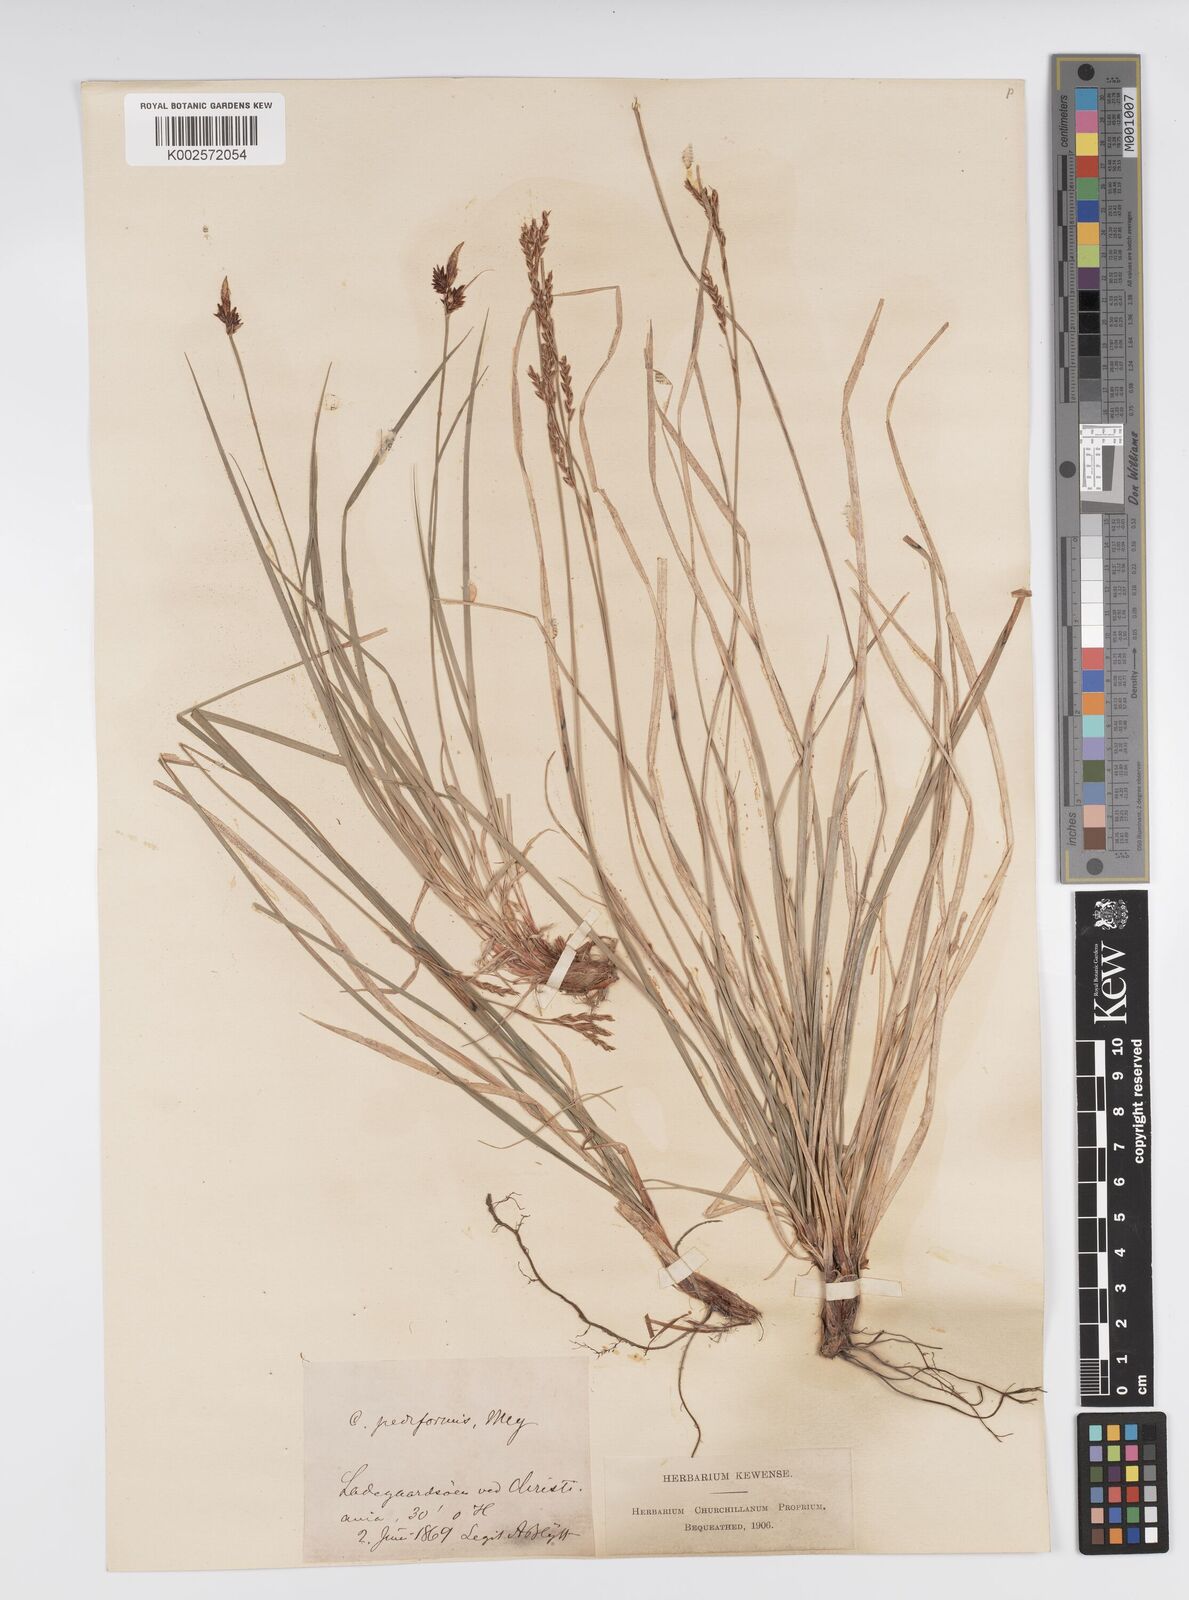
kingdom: Plantae
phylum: Tracheophyta
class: Liliopsida
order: Poales
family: Cyperaceae
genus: Carex
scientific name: Carex pediformis
